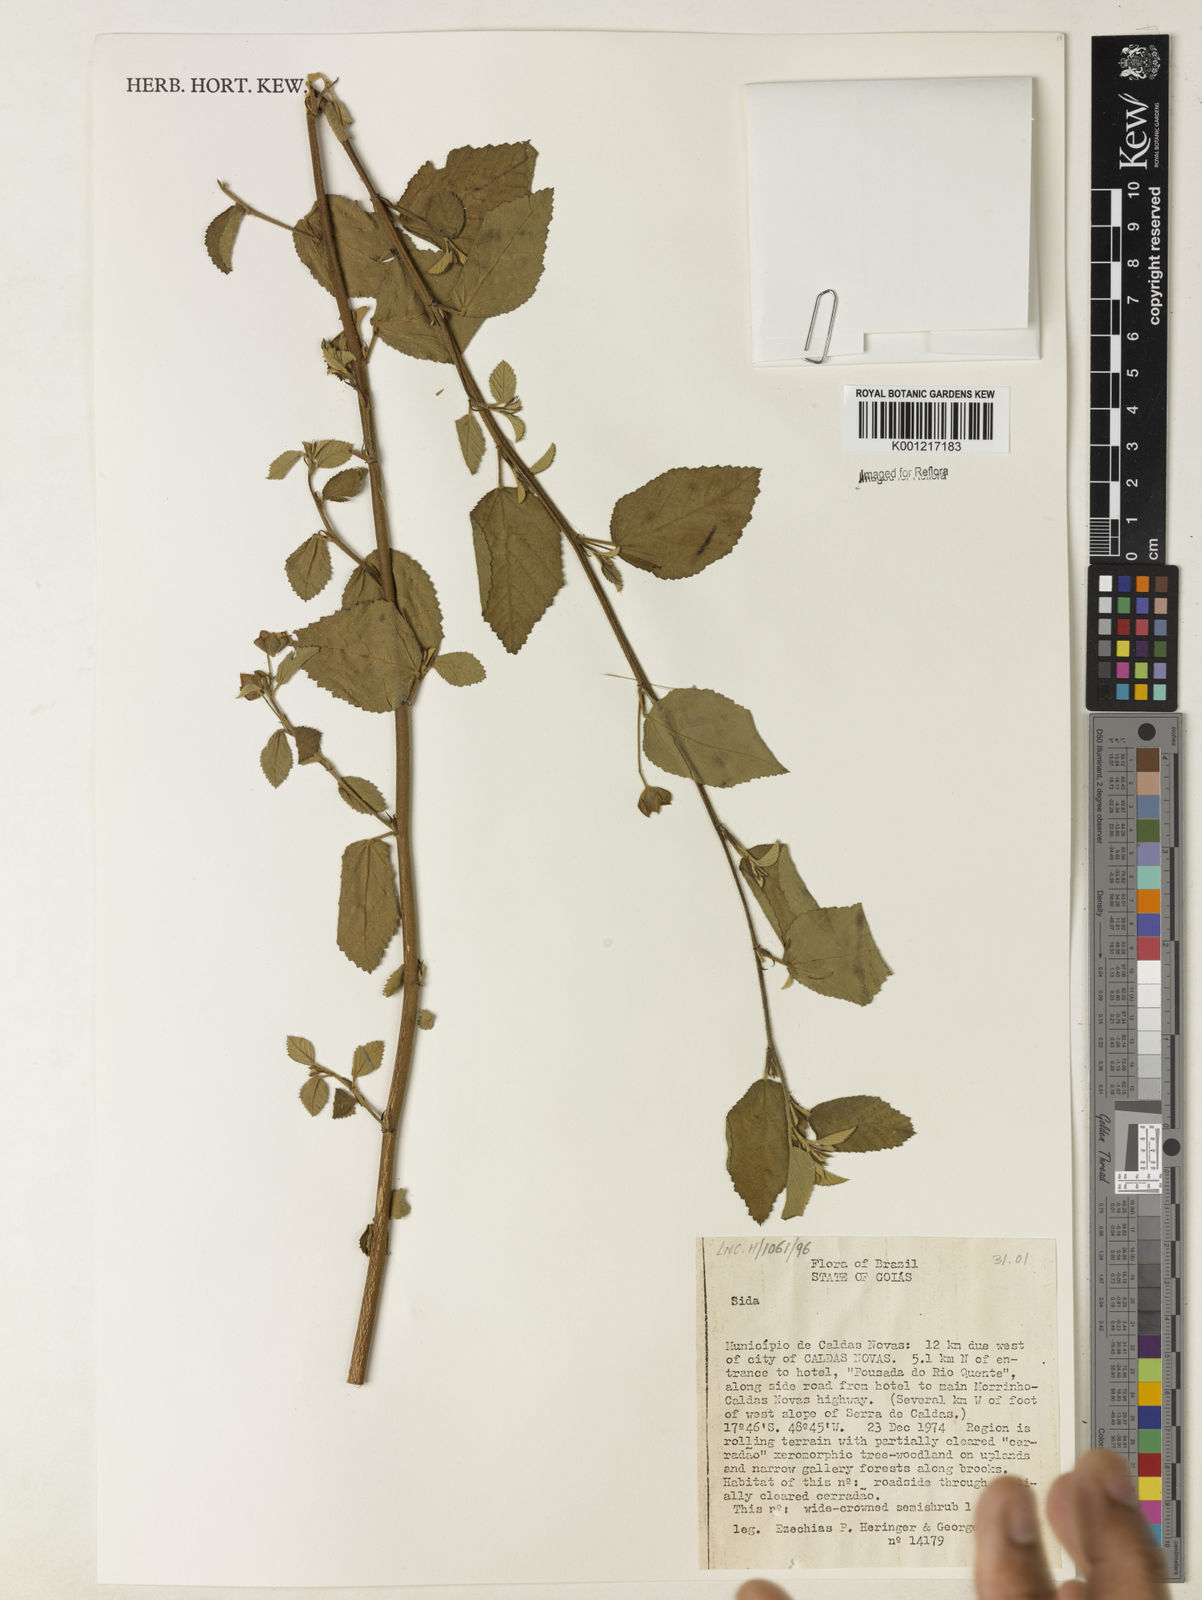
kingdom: Plantae
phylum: Tracheophyta
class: Magnoliopsida
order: Malvales
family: Malvaceae
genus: Sida
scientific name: Sida
